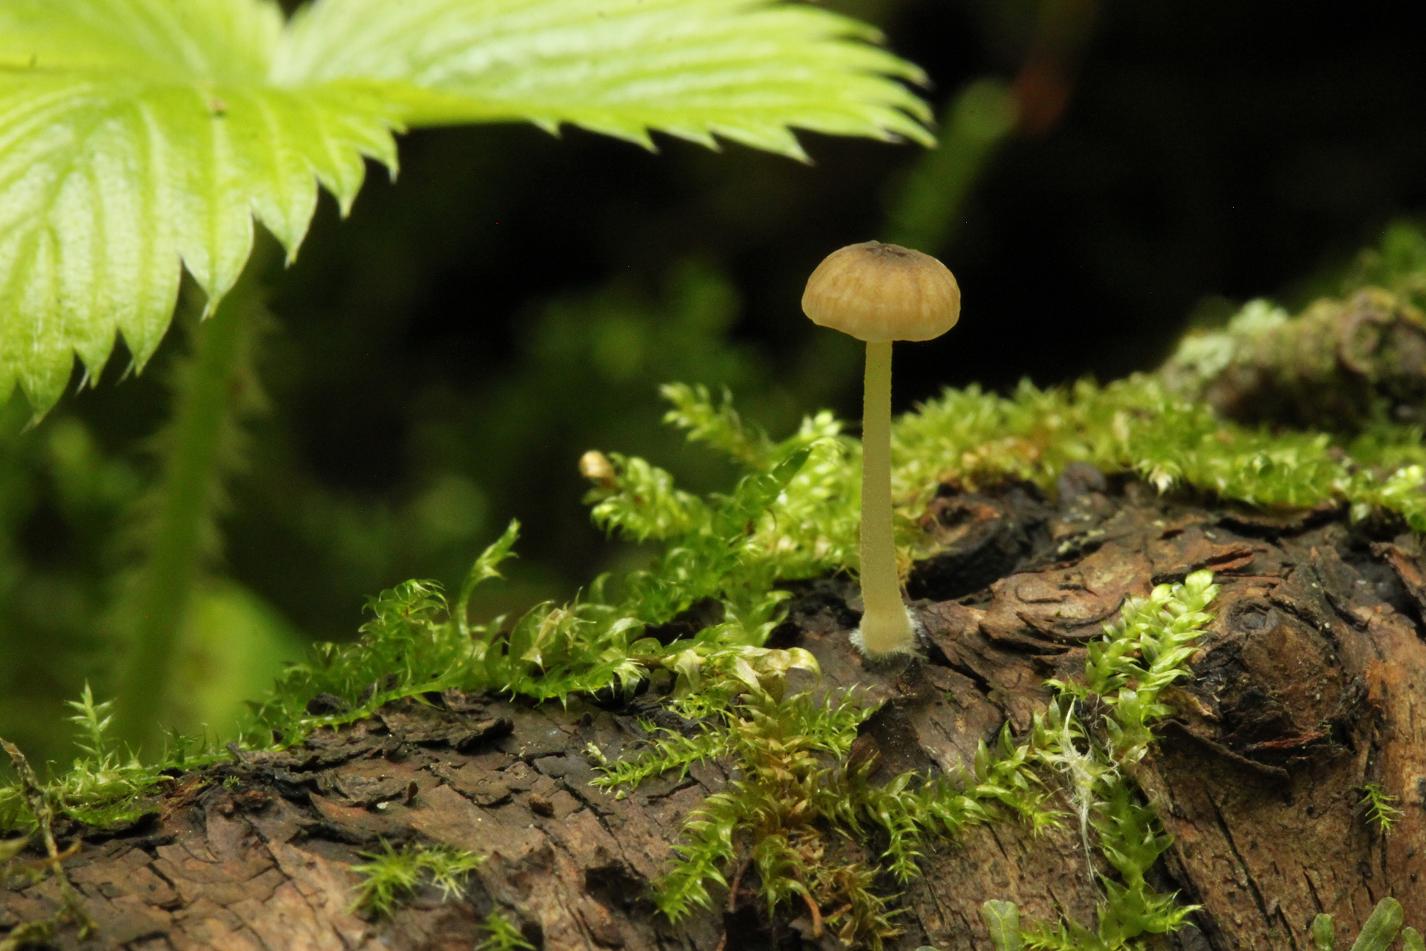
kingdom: Fungi
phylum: Basidiomycota
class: Agaricomycetes
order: Agaricales
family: Porotheleaceae
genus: Phloeomana
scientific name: Phloeomana speirea
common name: kvist-huesvamp
